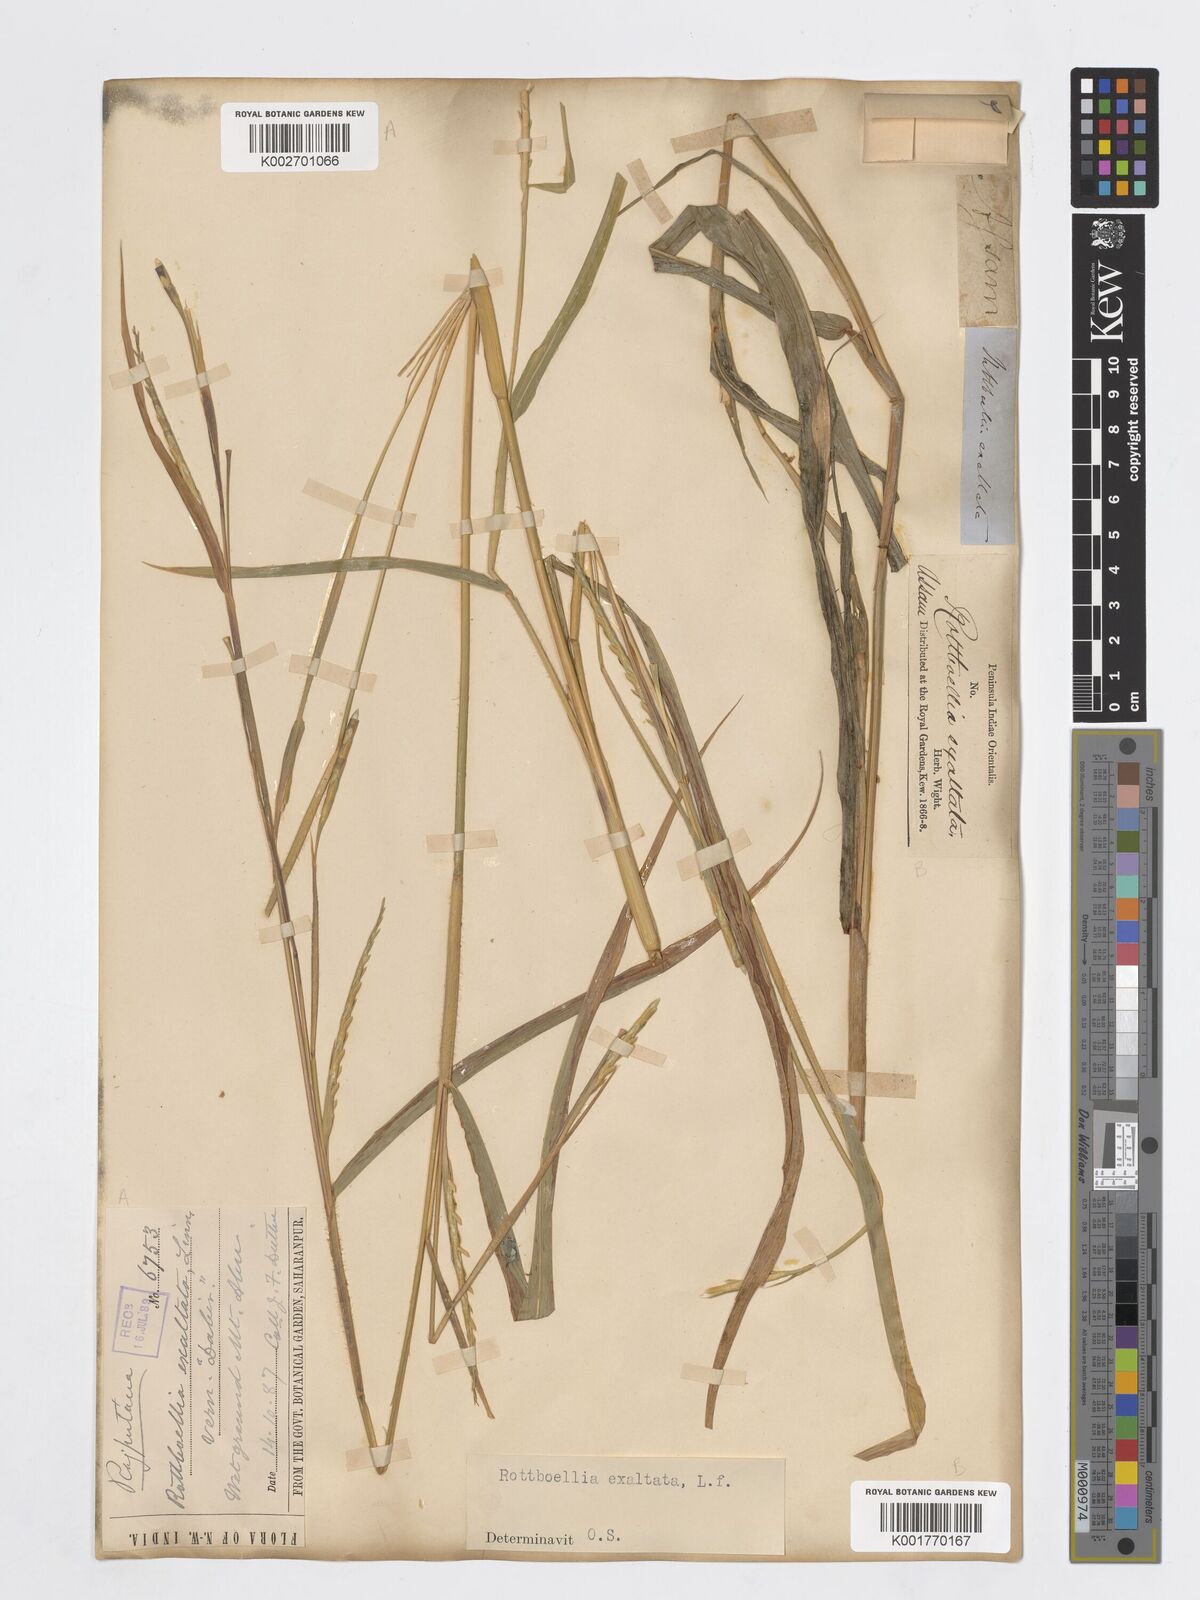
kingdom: Plantae
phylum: Tracheophyta
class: Liliopsida
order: Poales
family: Poaceae
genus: Ophiuros
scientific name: Ophiuros exaltatus
